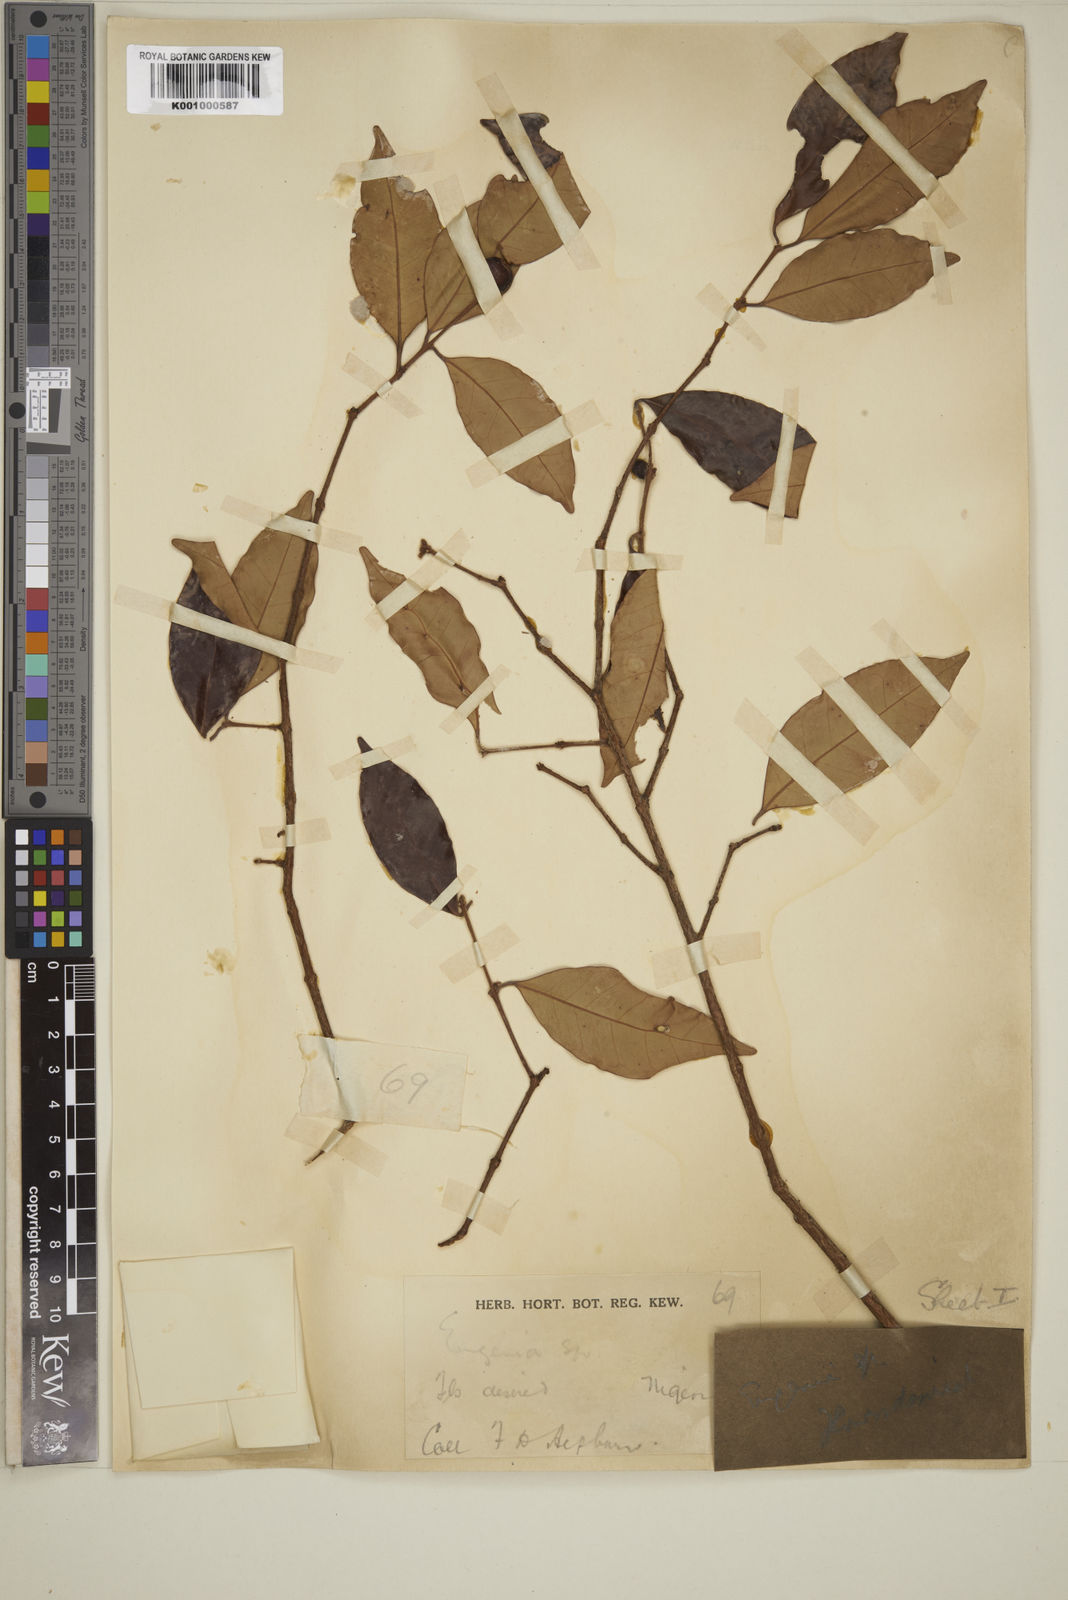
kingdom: Plantae
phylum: Tracheophyta
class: Magnoliopsida
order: Myrtales
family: Myrtaceae
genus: Eugenia
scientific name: Eugenia buchholzii
